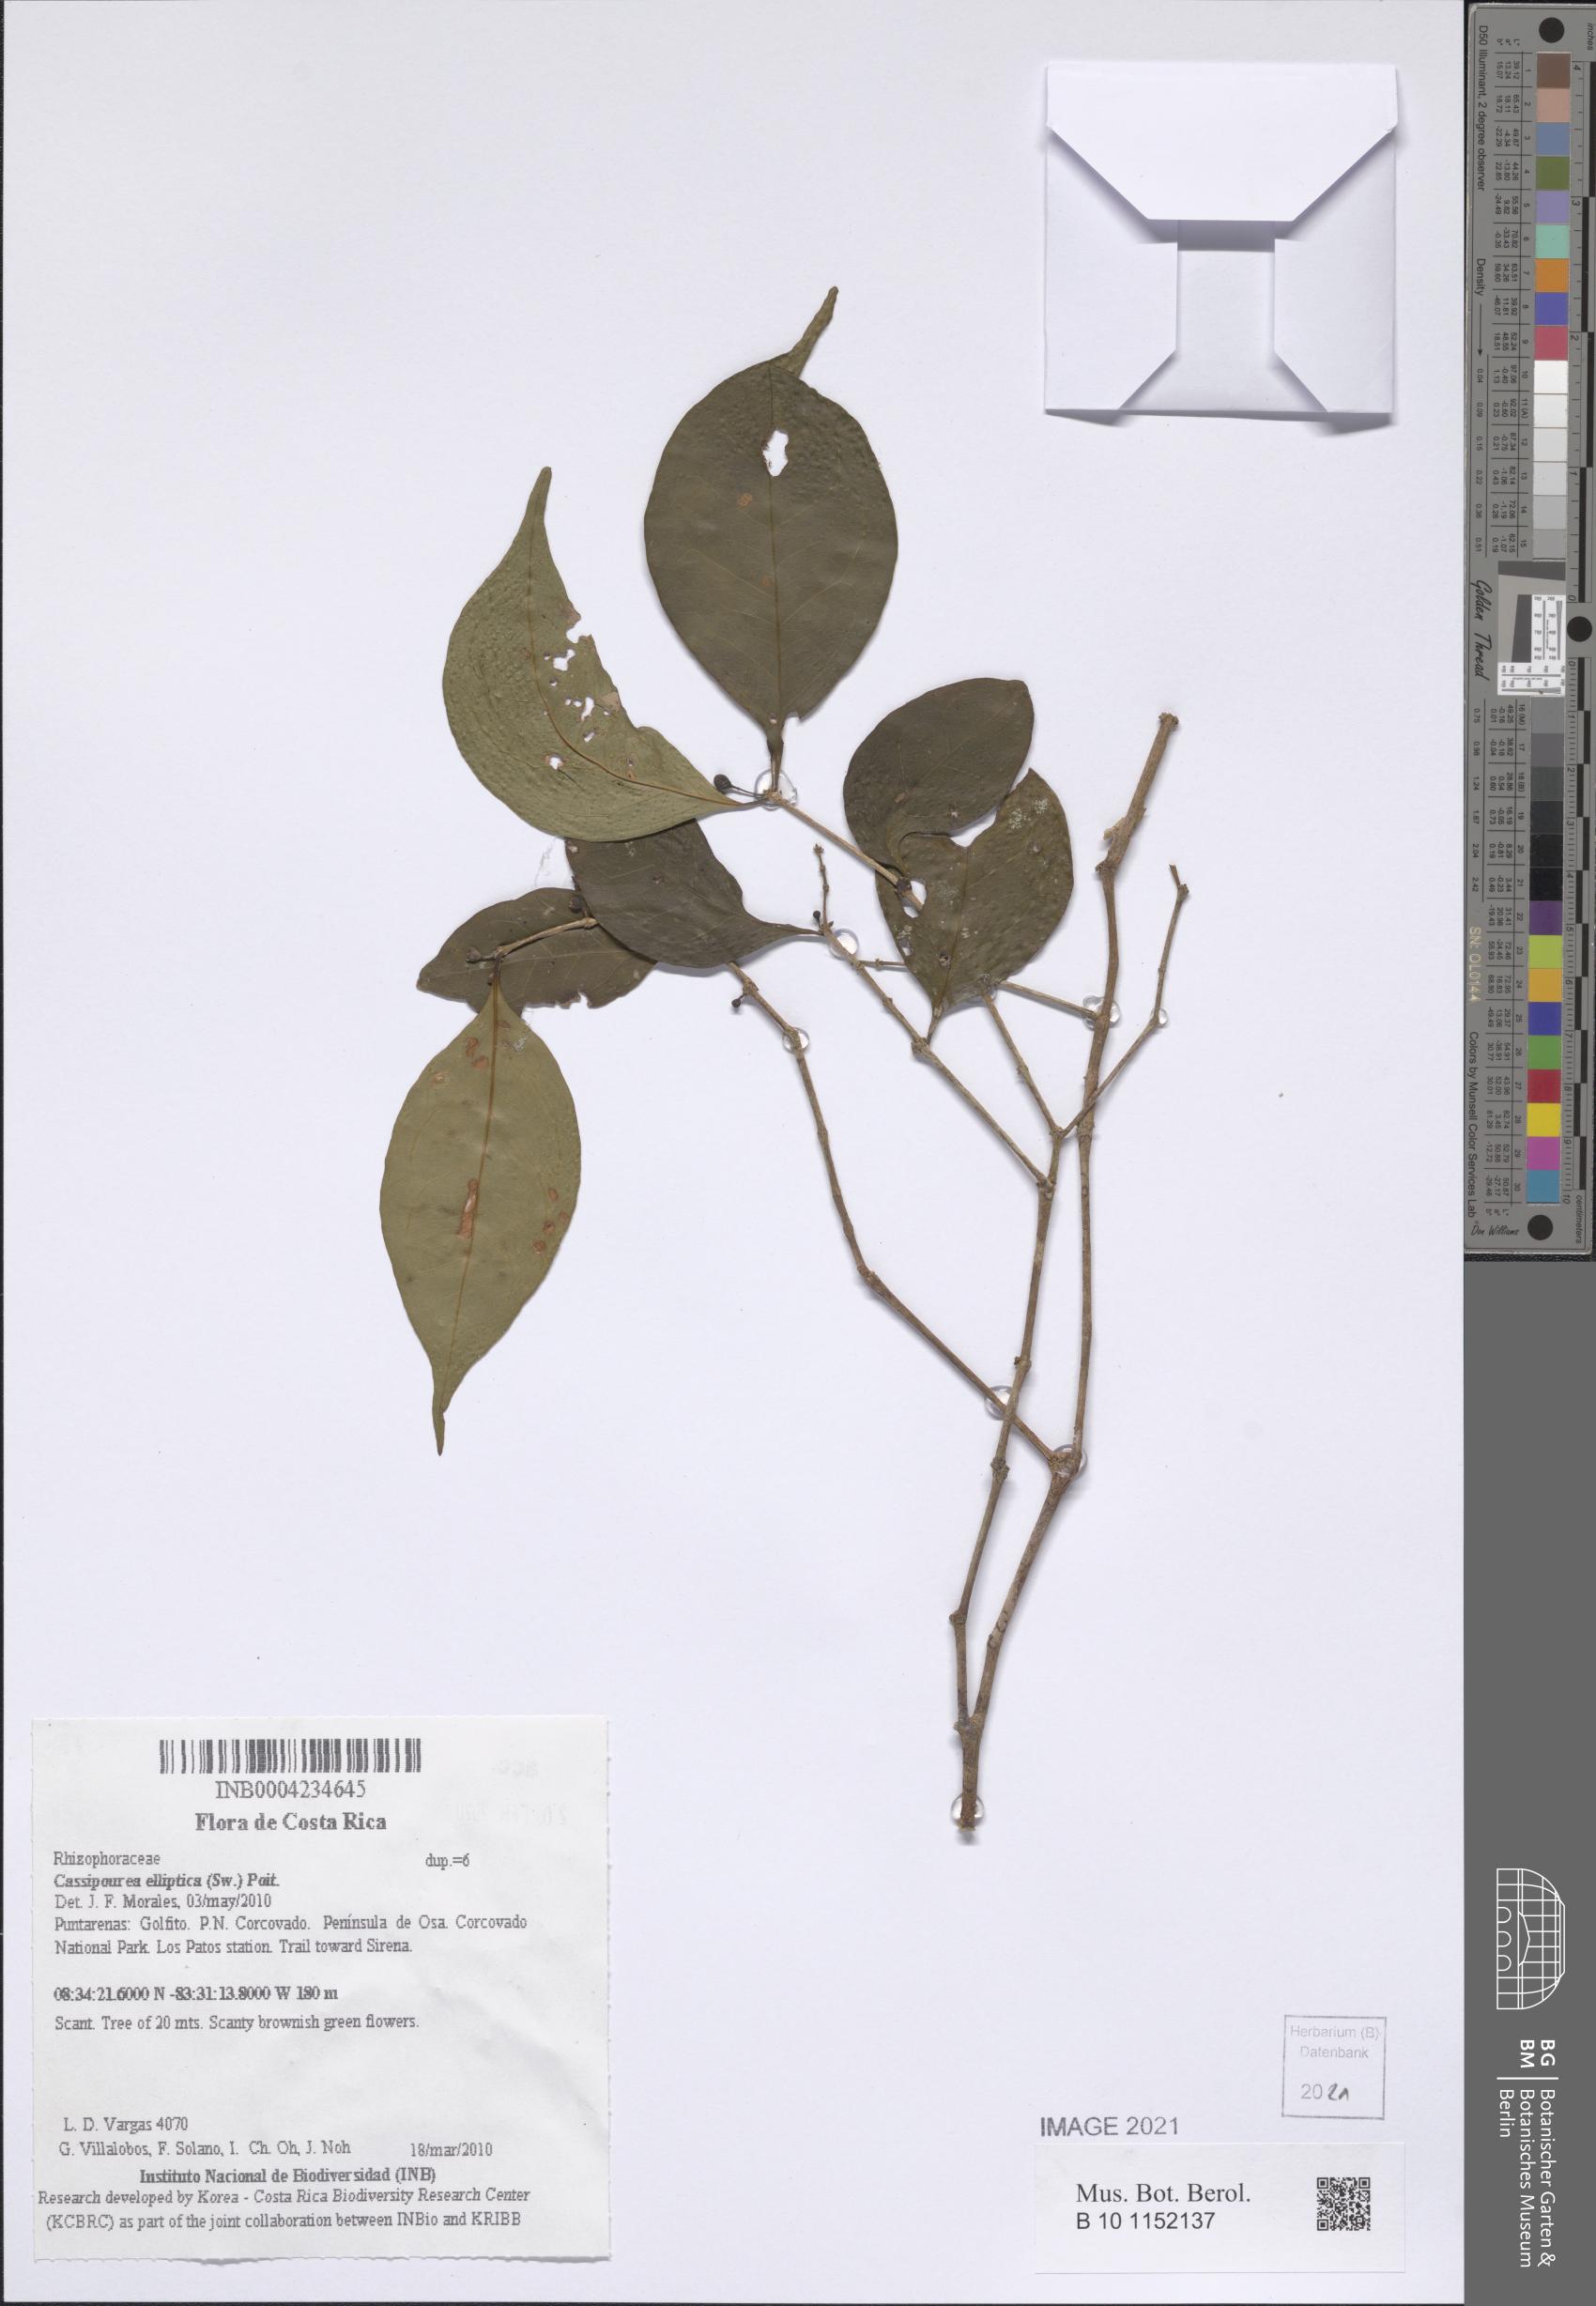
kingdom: Plantae
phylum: Tracheophyta
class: Magnoliopsida
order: Malpighiales
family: Rhizophoraceae
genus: Cassipourea
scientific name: Cassipourea elliptica
